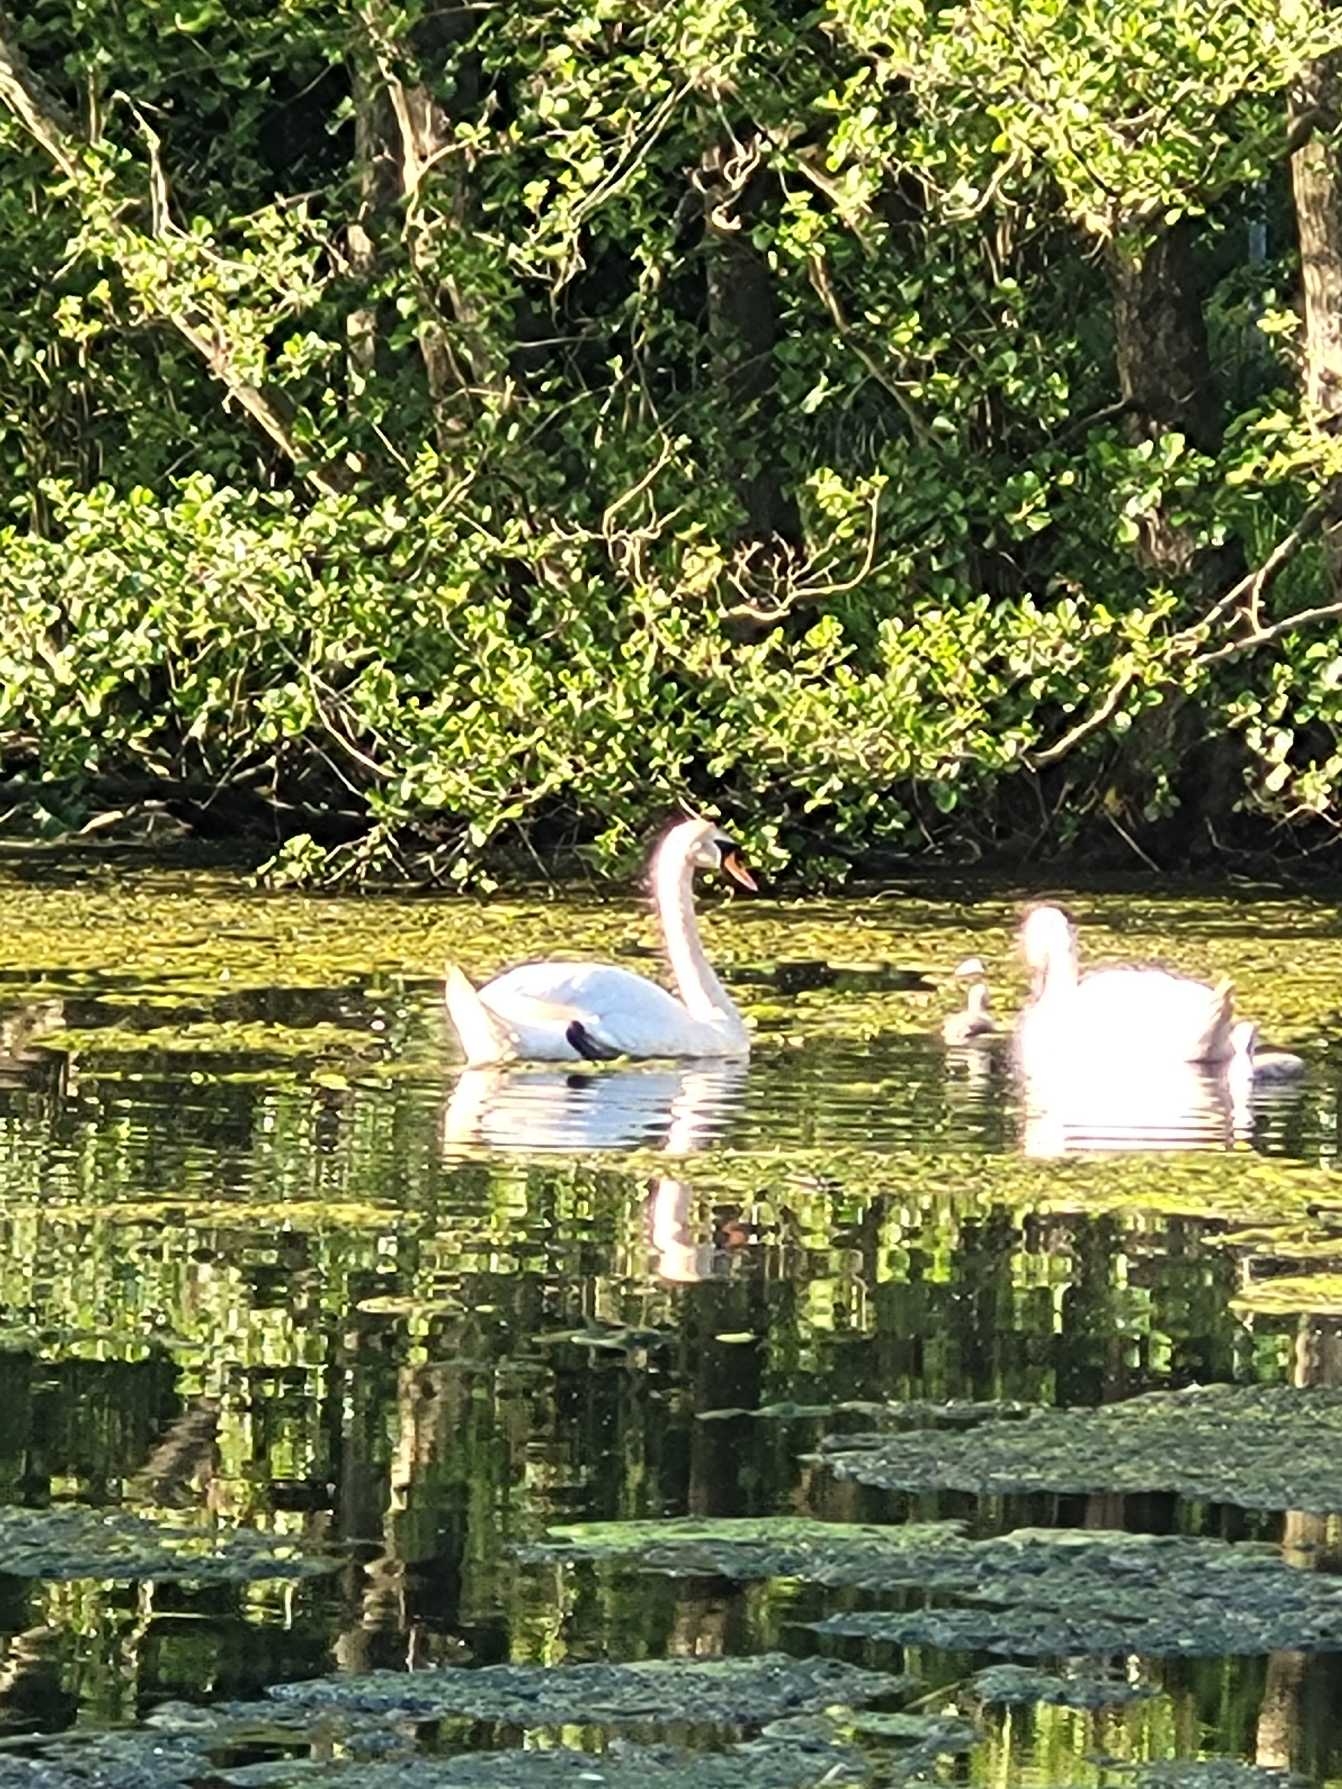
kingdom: Animalia
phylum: Chordata
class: Aves
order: Anseriformes
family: Anatidae
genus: Cygnus
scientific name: Cygnus olor
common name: Knopsvane
